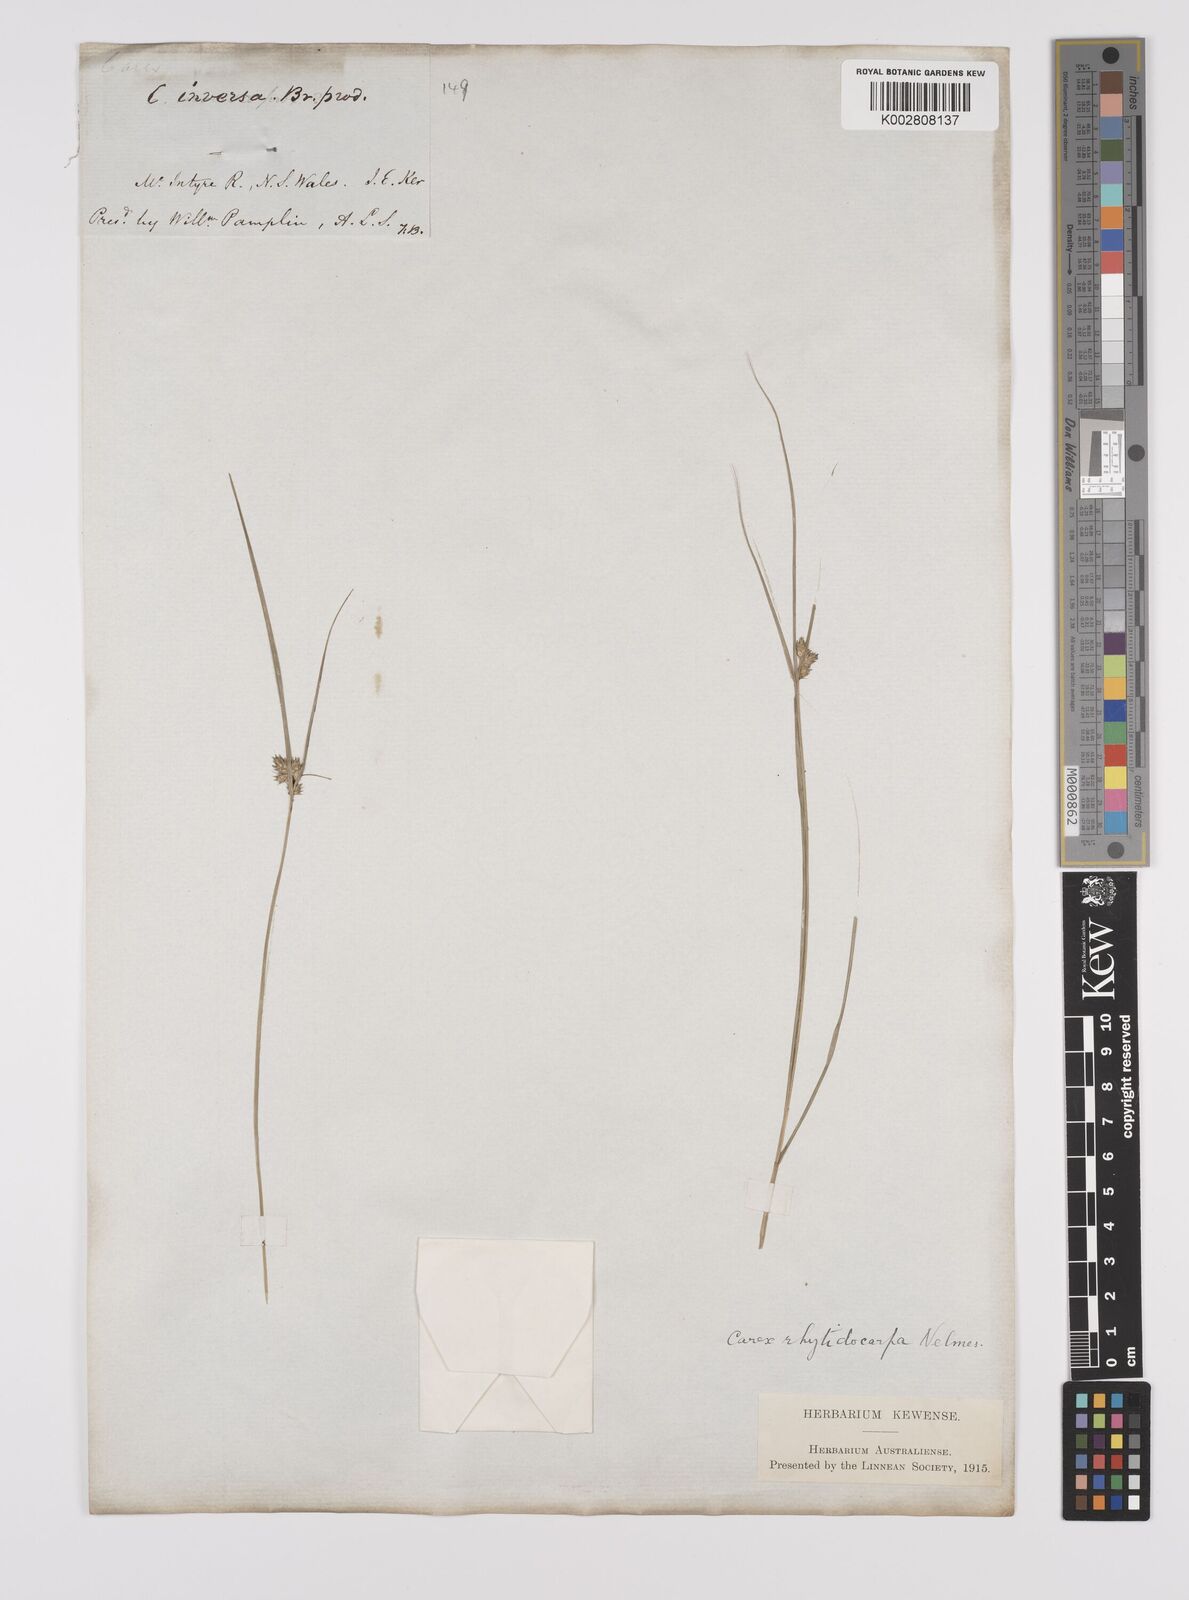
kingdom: Plantae
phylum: Tracheophyta
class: Liliopsida
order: Poales
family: Cyperaceae
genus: Carex
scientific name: Carex inversa
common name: Knob sedge
